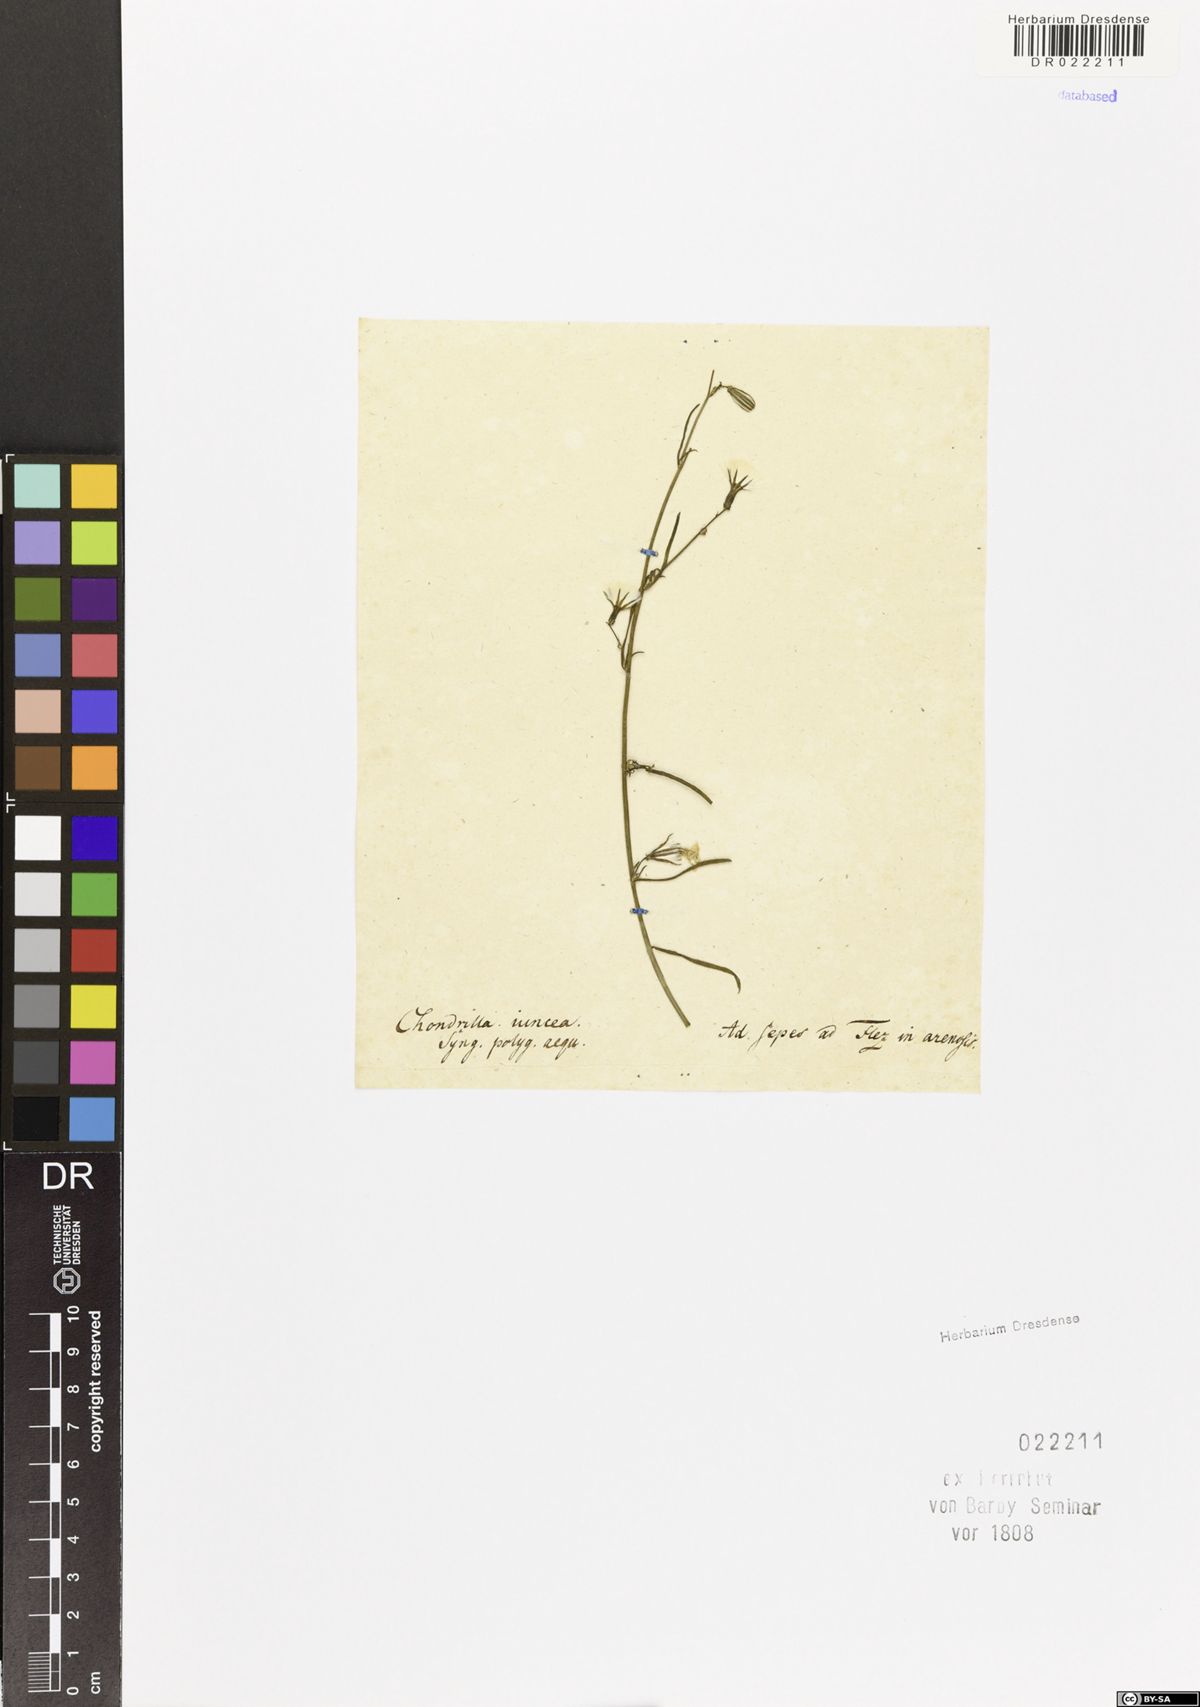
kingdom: Plantae
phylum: Tracheophyta
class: Magnoliopsida
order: Asterales
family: Asteraceae
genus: Chondrilla
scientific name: Chondrilla juncea
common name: Skeleton weed
